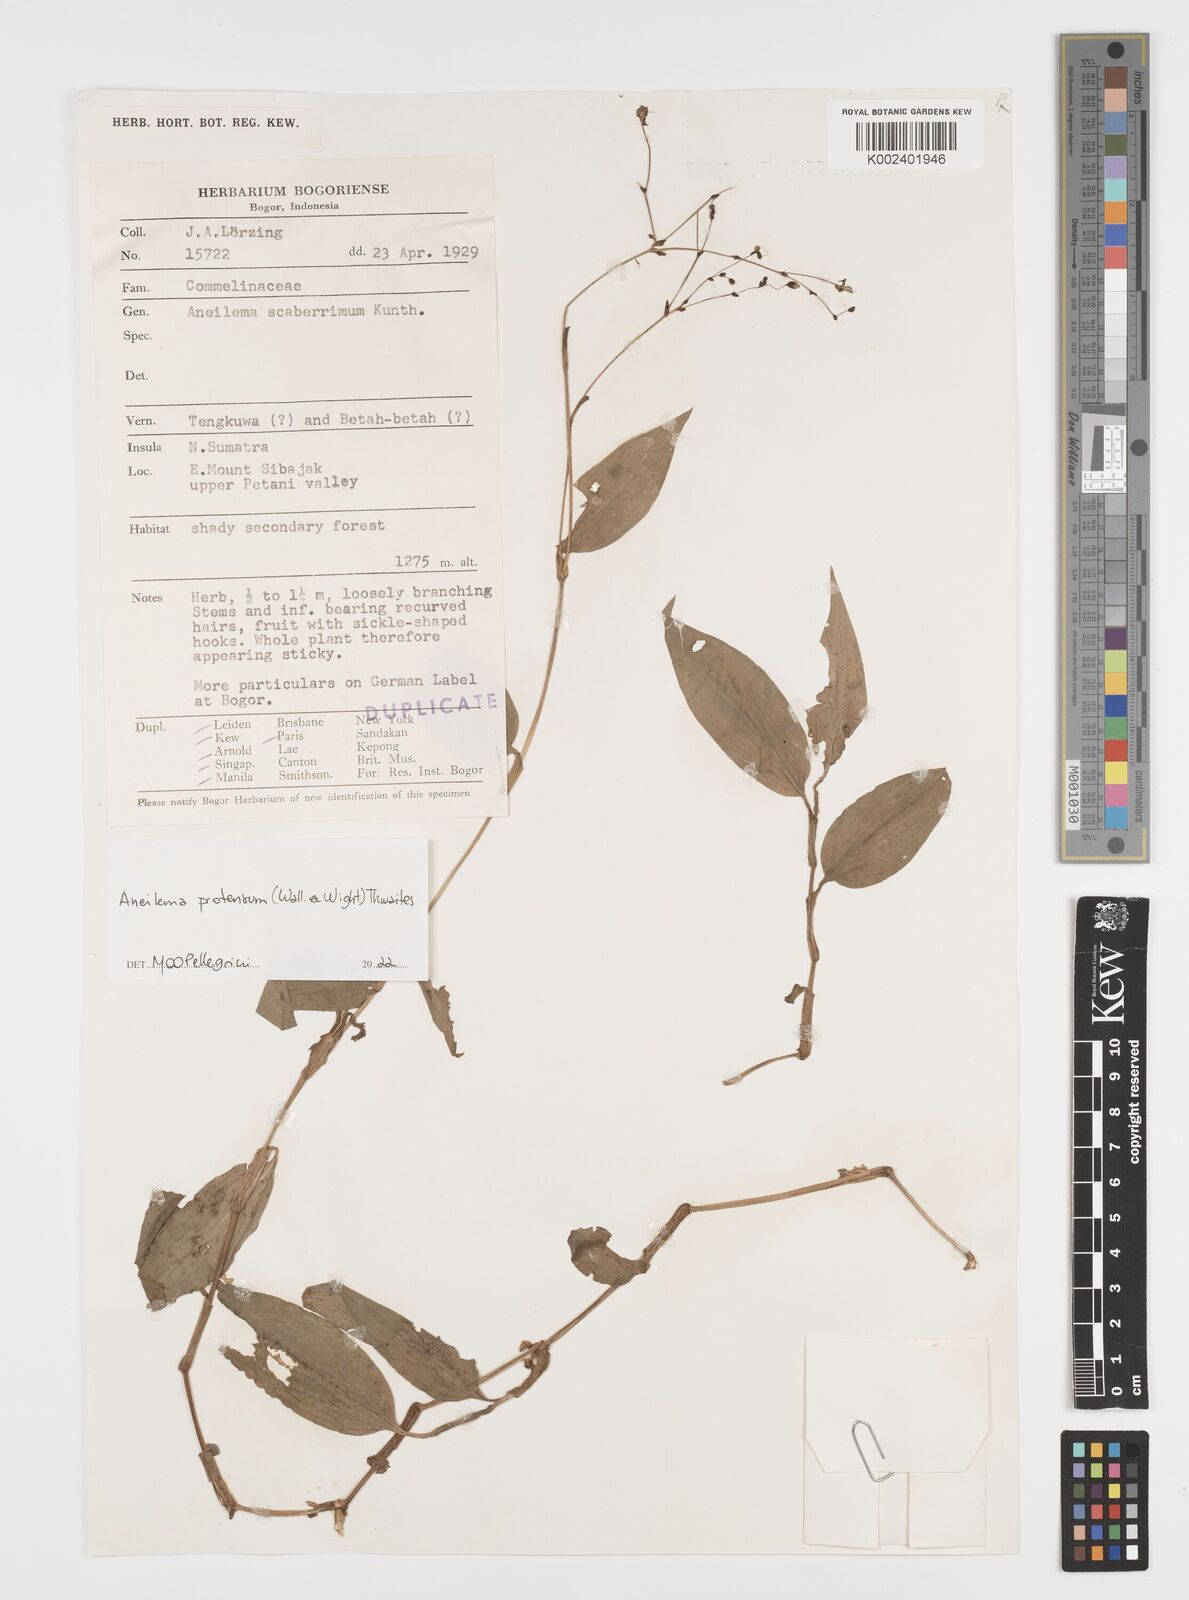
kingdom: Plantae
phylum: Tracheophyta
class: Liliopsida
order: Commelinales
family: Commelinaceae
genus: Rhopalephora
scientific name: Rhopalephora
